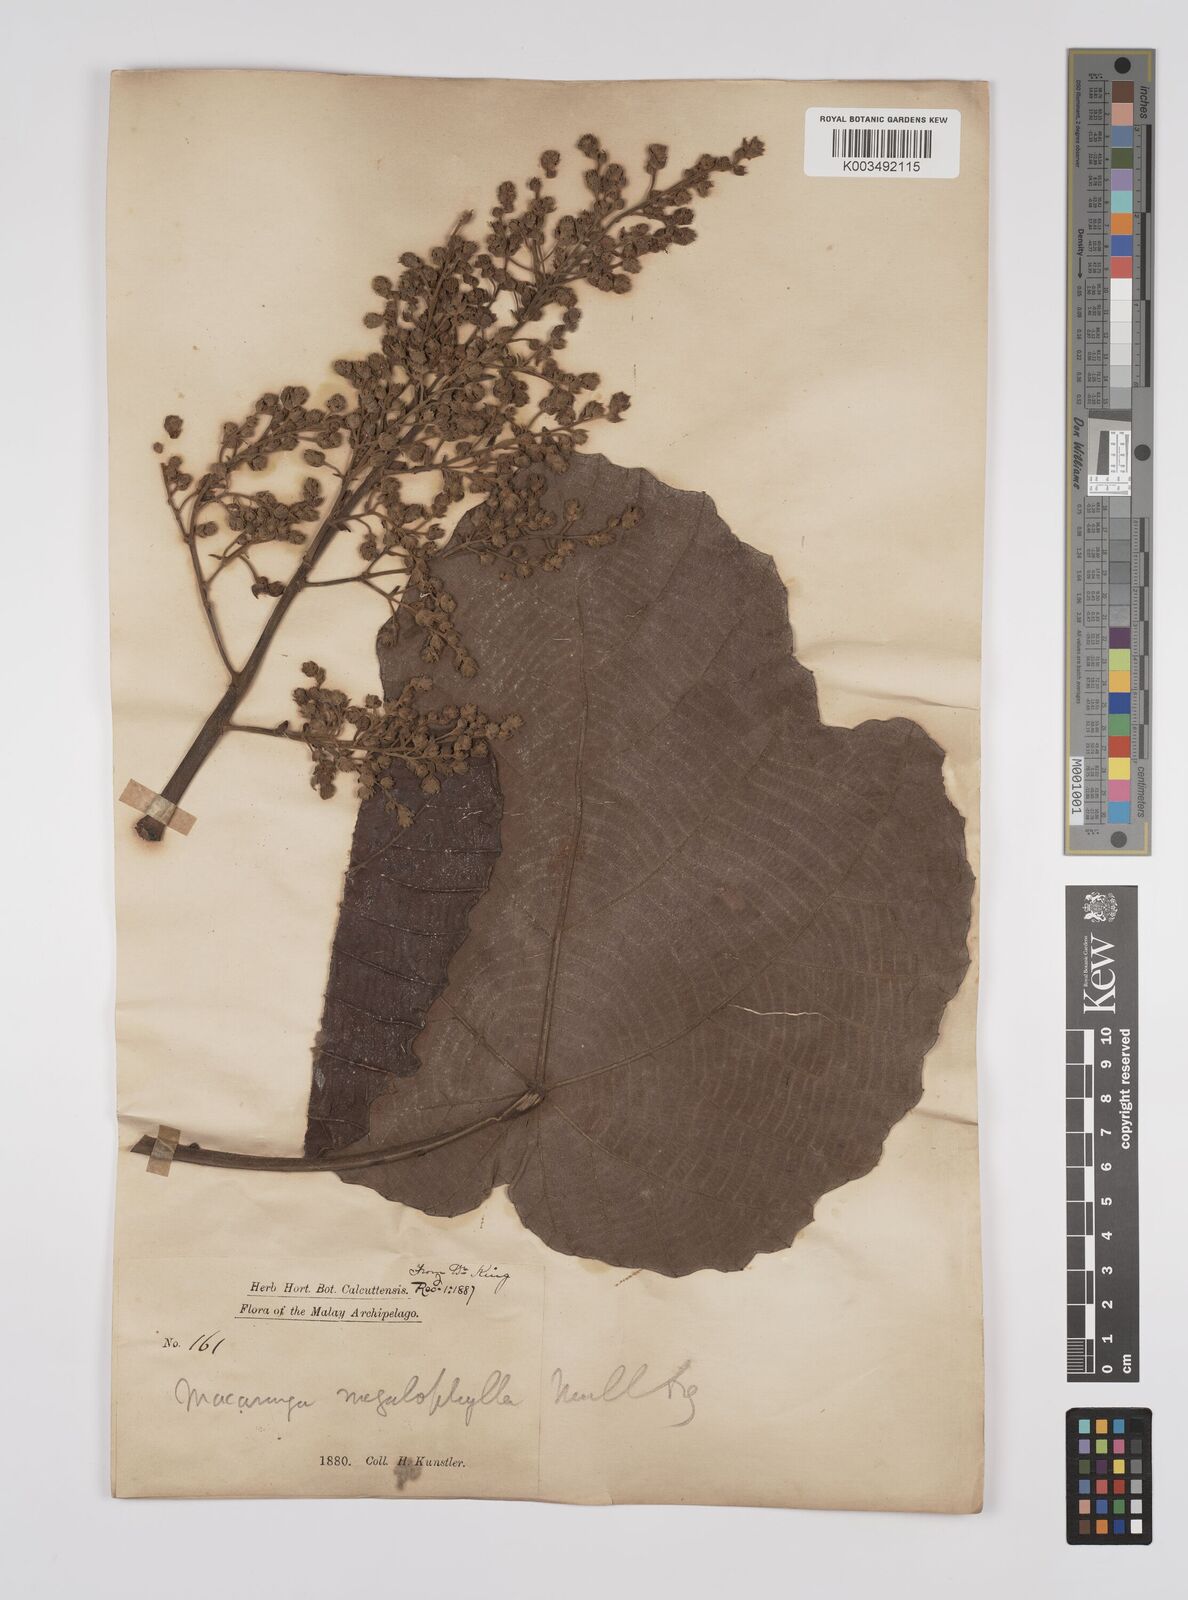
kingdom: Plantae
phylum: Tracheophyta
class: Magnoliopsida
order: Malpighiales
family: Euphorbiaceae
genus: Macaranga
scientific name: Macaranga gigantea
